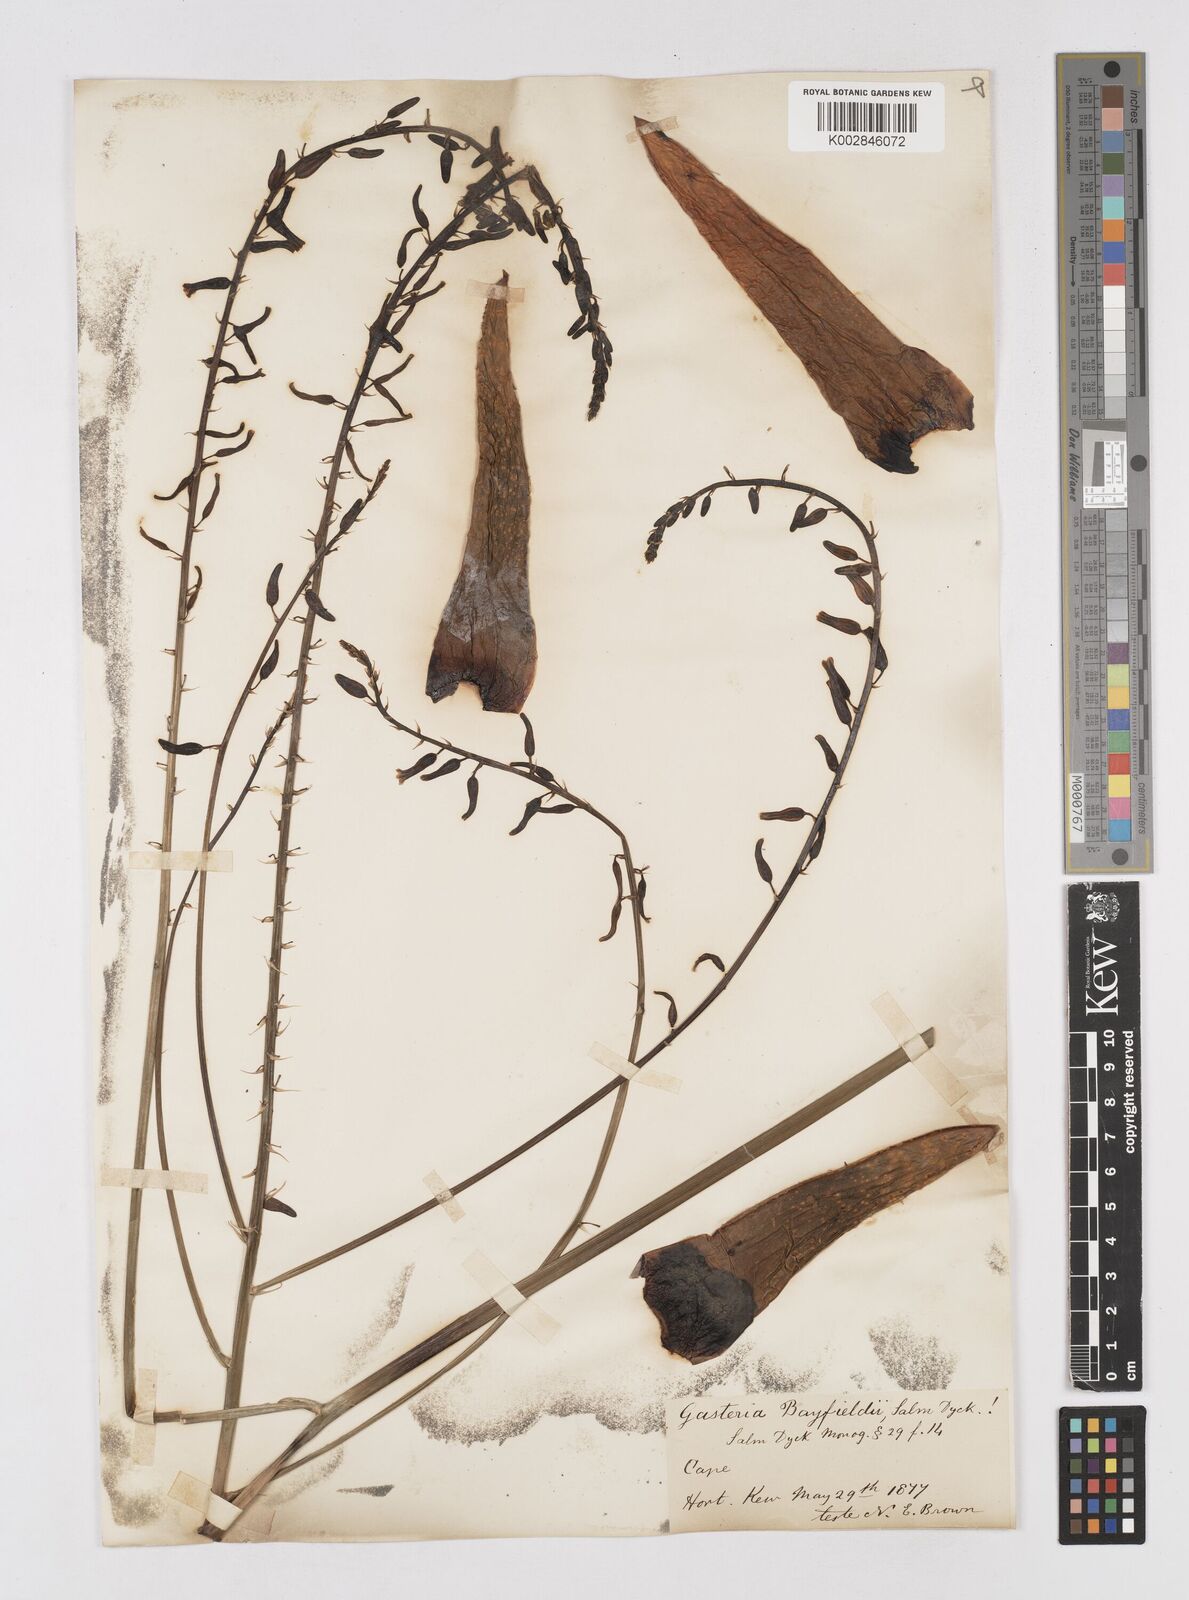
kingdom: Plantae
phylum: Tracheophyta
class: Liliopsida
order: Asparagales
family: Asphodelaceae
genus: Gasterhaworthia
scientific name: Gasterhaworthia bayfieldii
